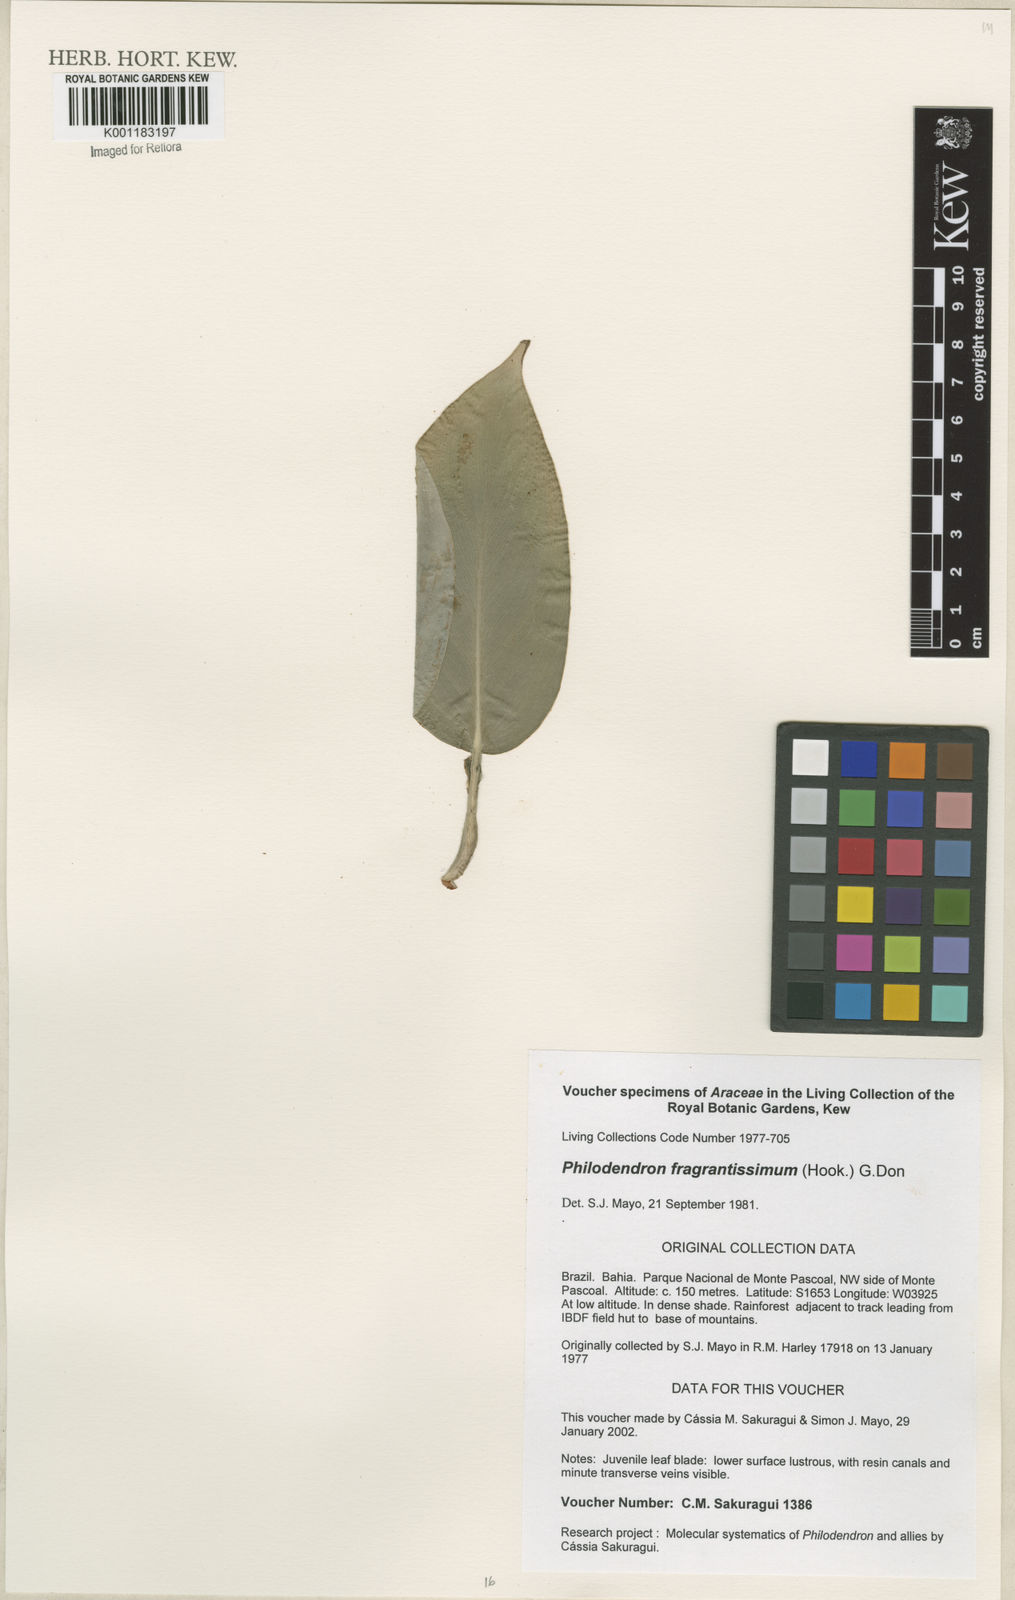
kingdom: Plantae
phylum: Tracheophyta
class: Liliopsida
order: Alismatales
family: Araceae
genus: Philodendron
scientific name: Philodendron fragrantissimum
